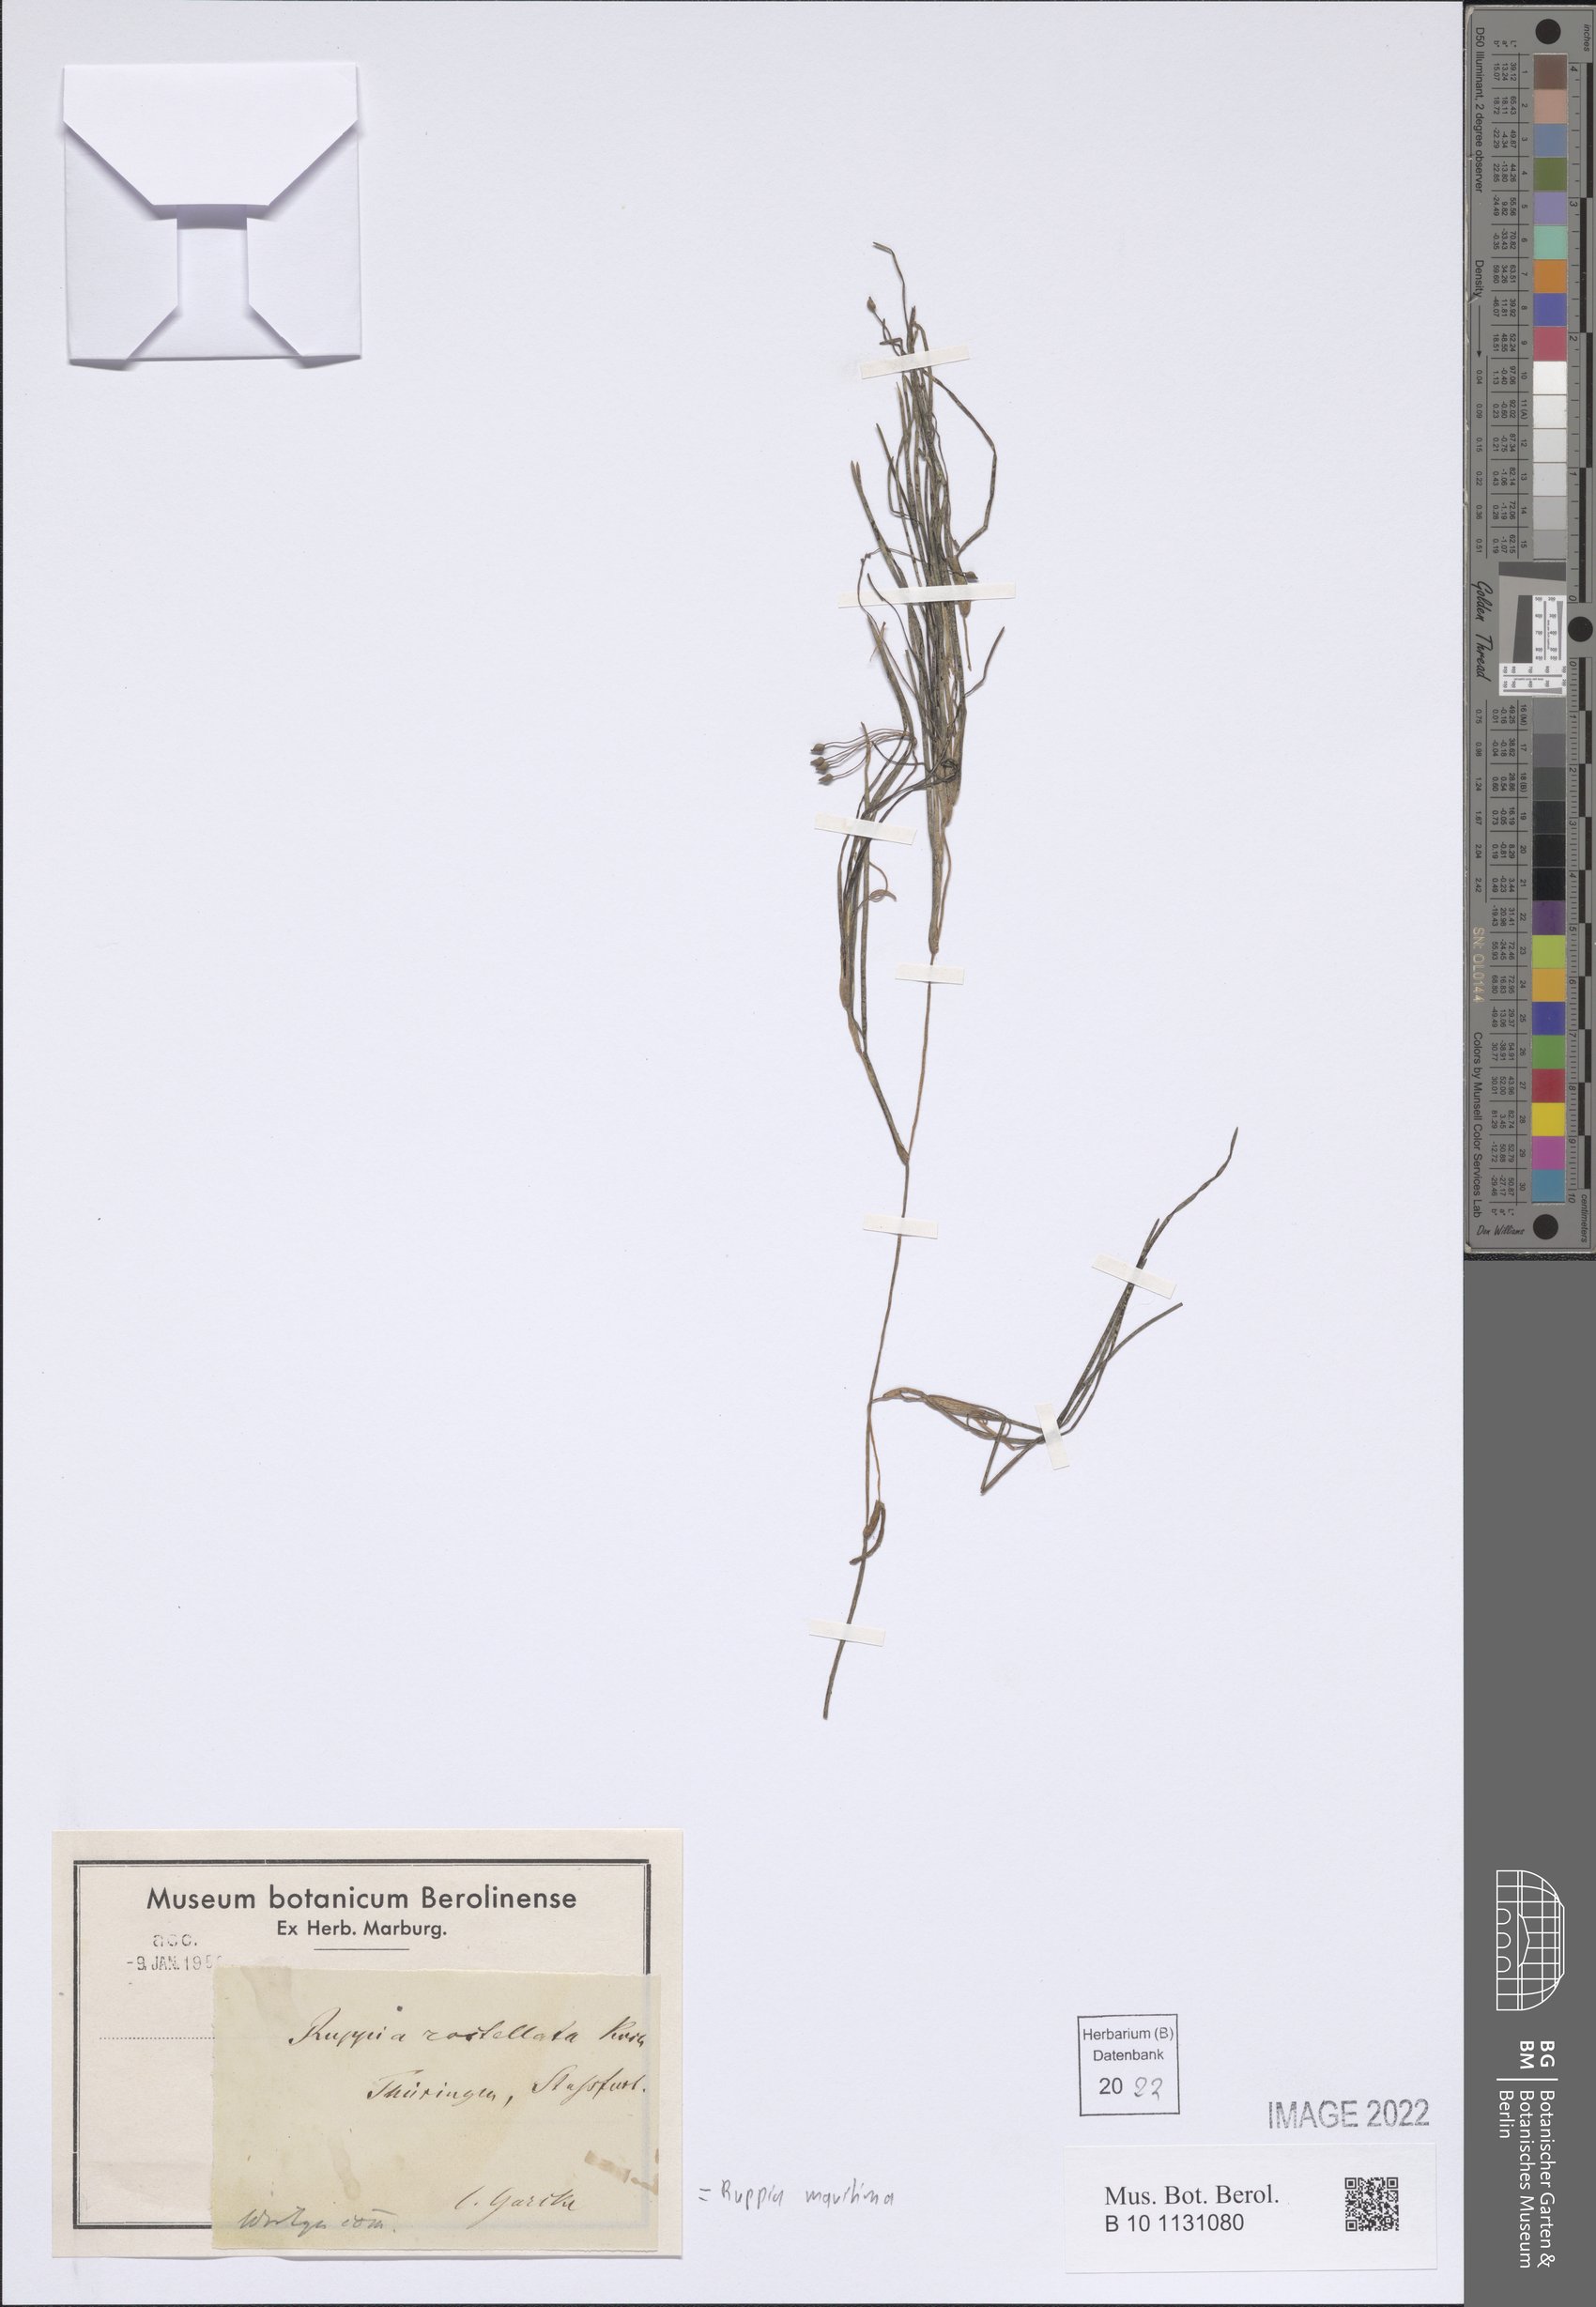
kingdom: Plantae
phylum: Tracheophyta
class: Liliopsida
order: Alismatales
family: Ruppiaceae
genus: Ruppia
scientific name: Ruppia maritima
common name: Beaked tasselweed
